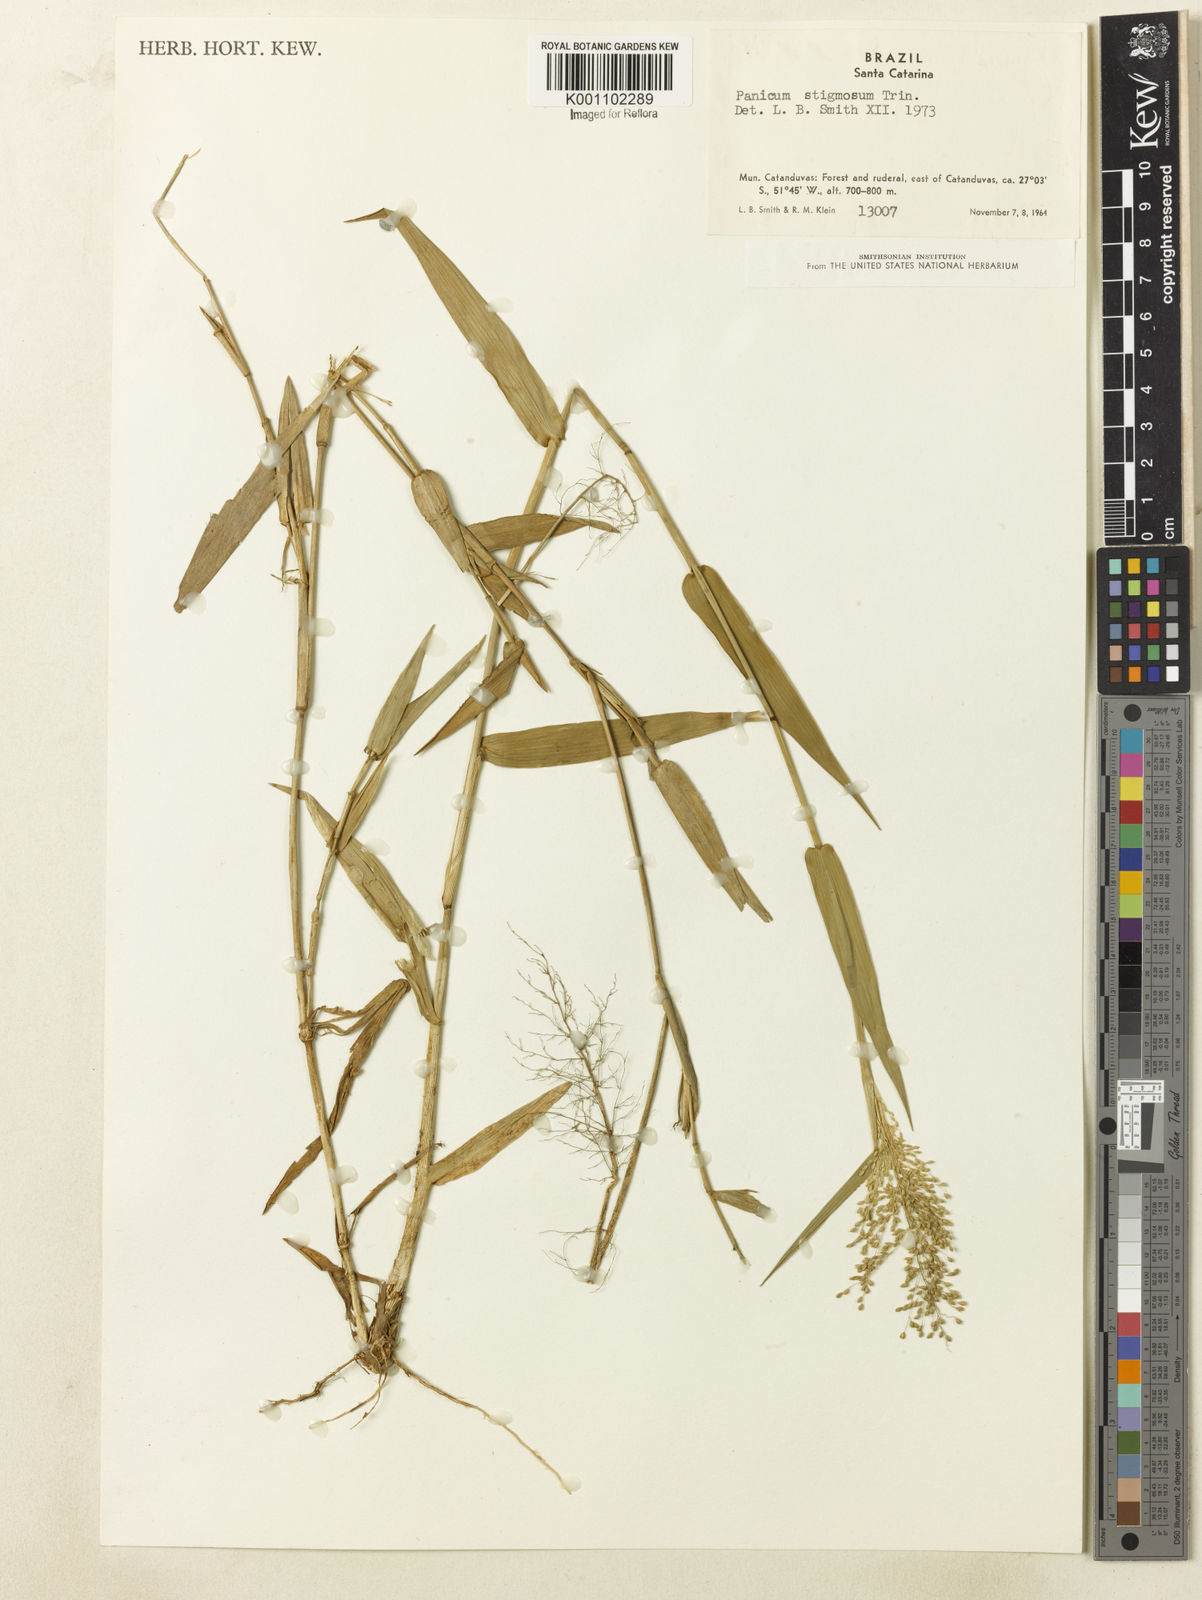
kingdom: Plantae
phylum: Tracheophyta
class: Liliopsida
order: Poales
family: Poaceae
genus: Dichanthelium
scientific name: Dichanthelium stigmosum
